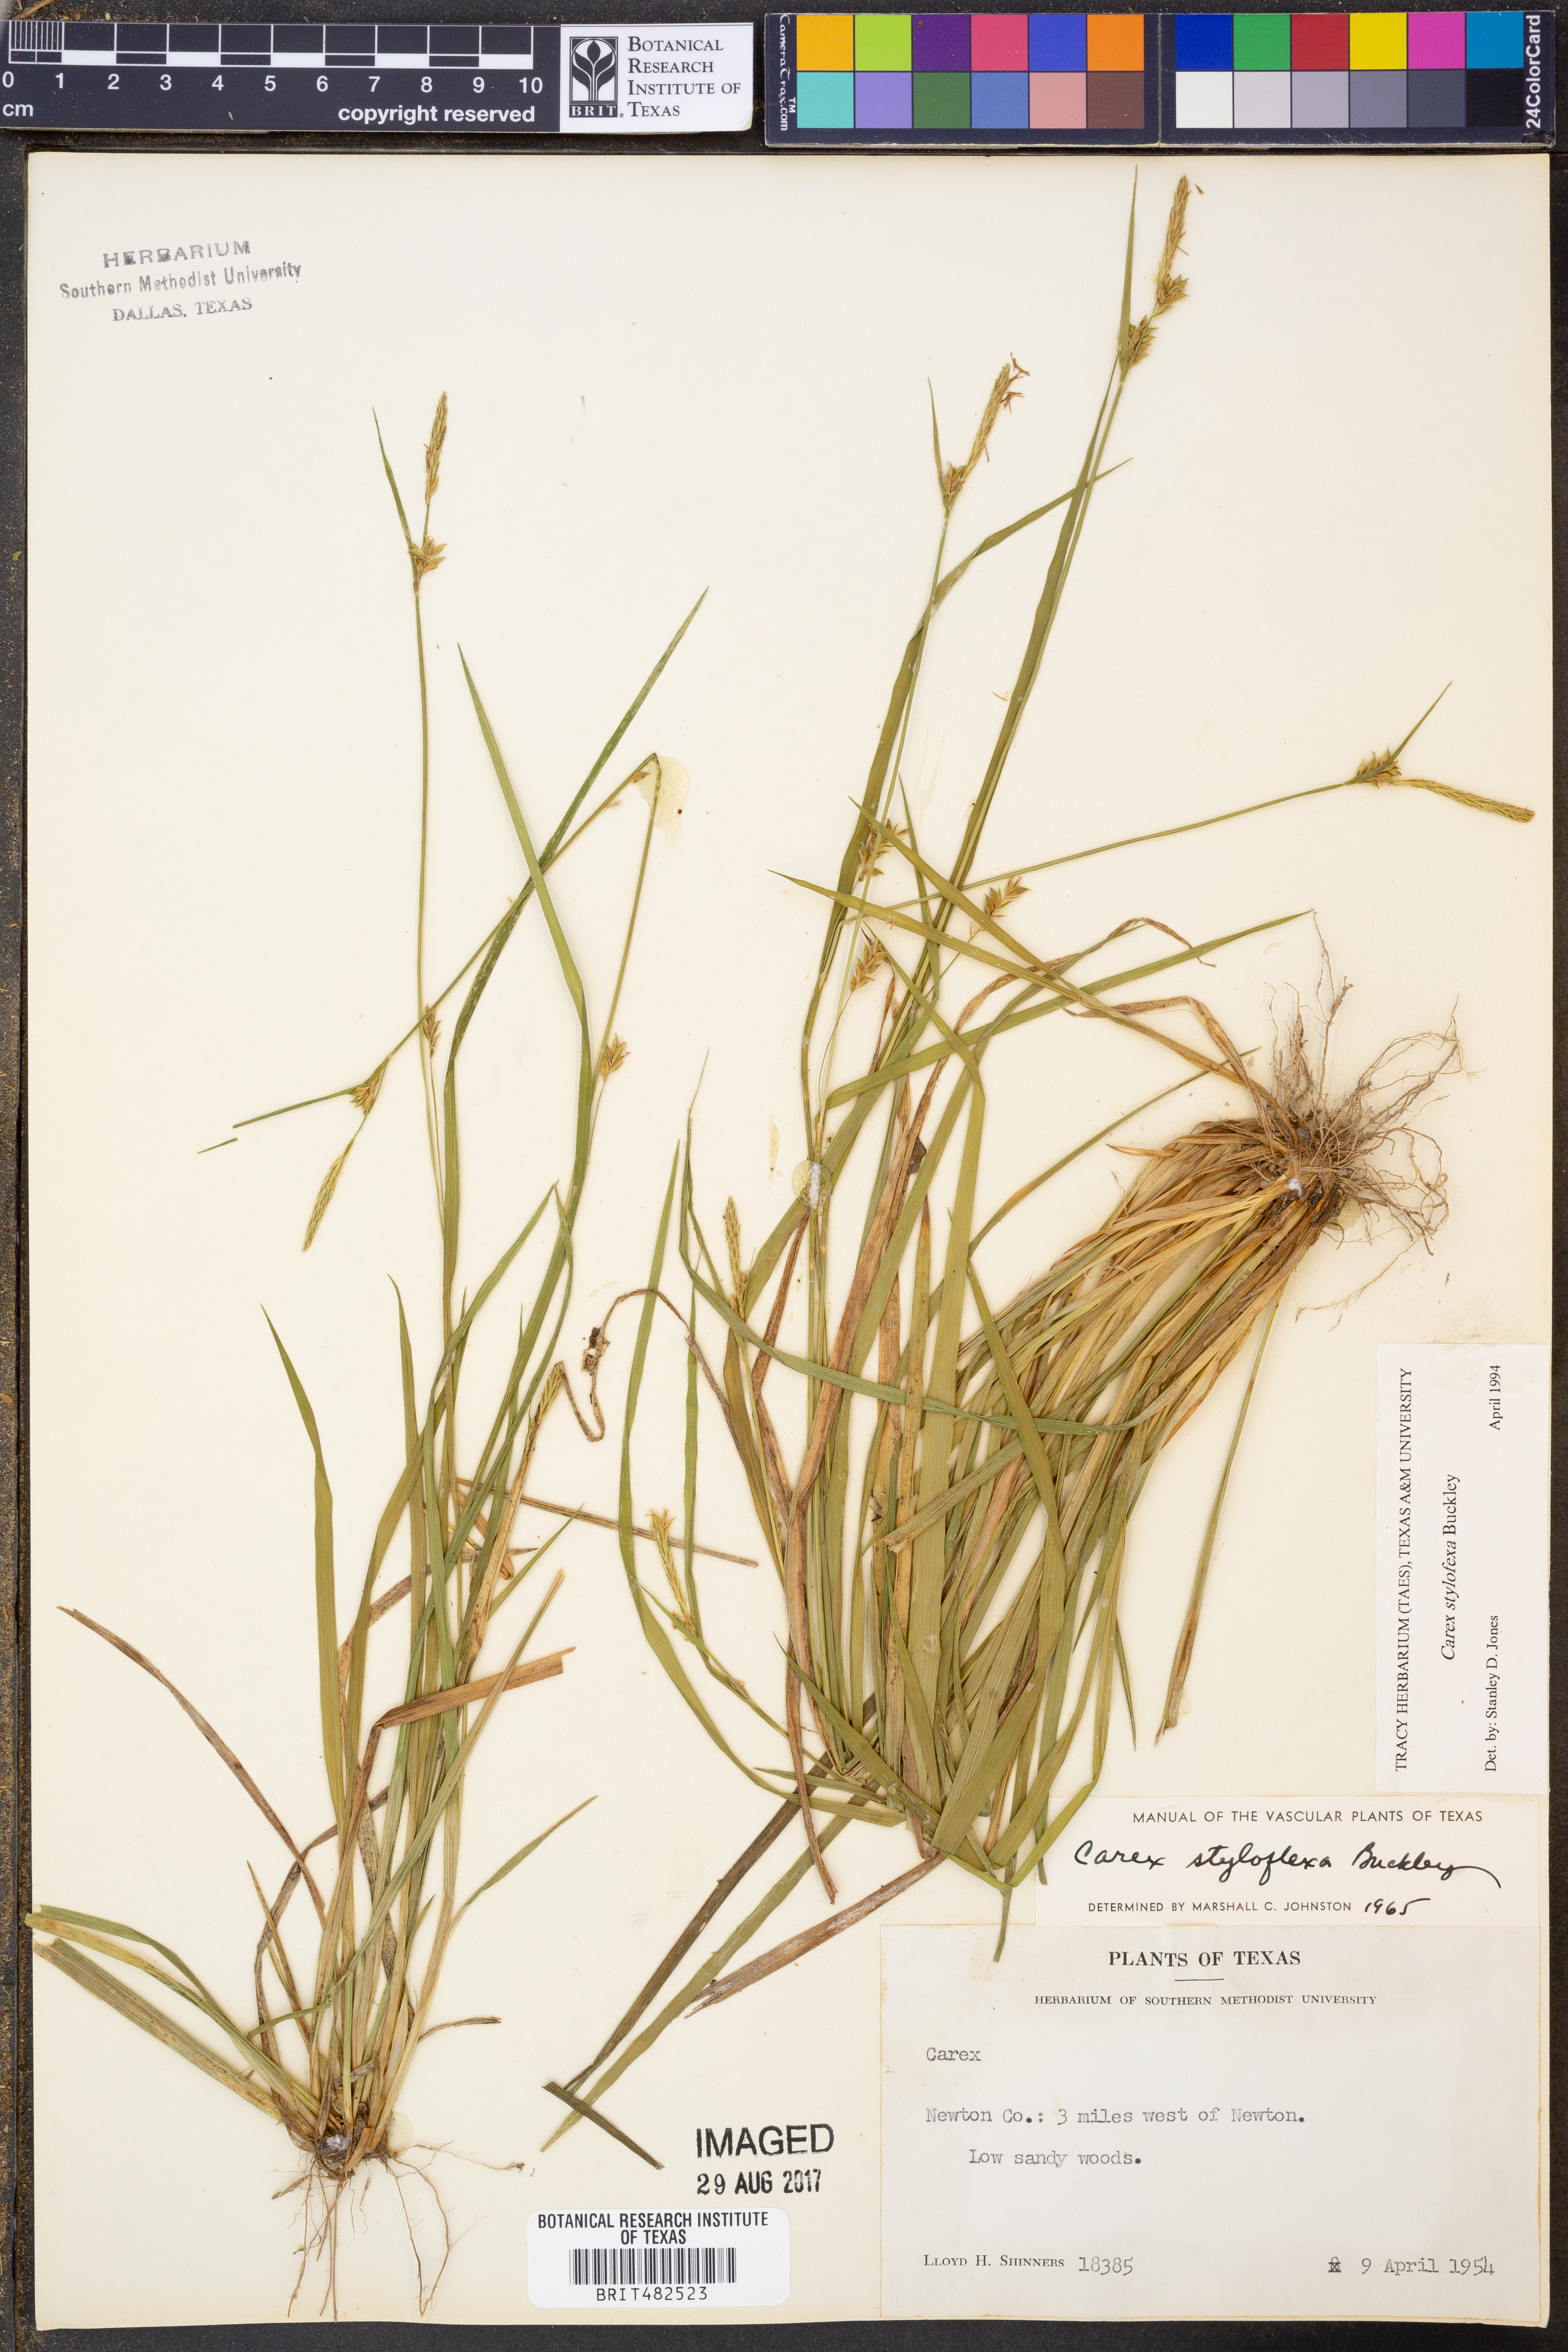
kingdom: Plantae
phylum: Tracheophyta
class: Liliopsida
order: Poales
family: Cyperaceae
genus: Carex
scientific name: Carex styloflexa
